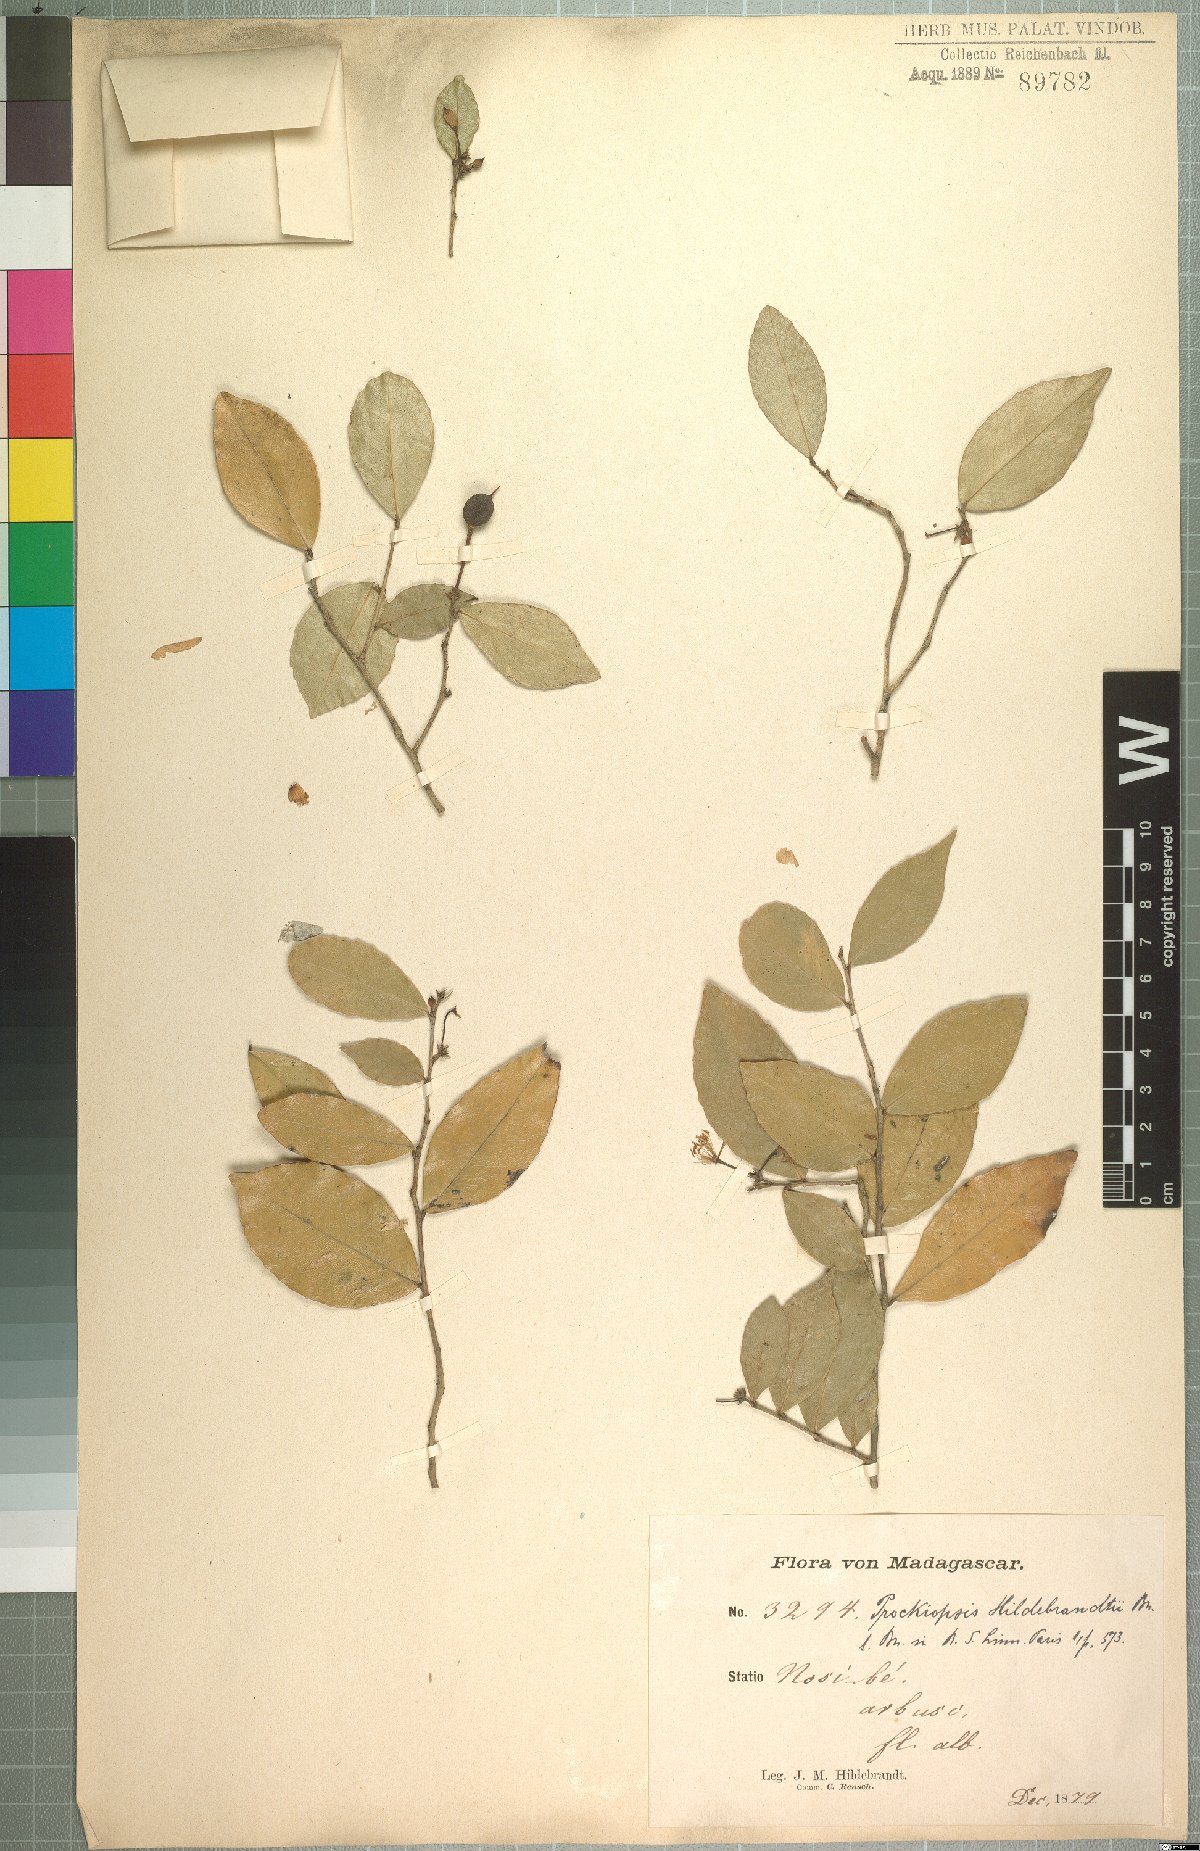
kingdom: Plantae
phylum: Tracheophyta
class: Magnoliopsida
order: Malpighiales
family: Achariaceae
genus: Prockiopsis
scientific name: Prockiopsis hildebrandtii
